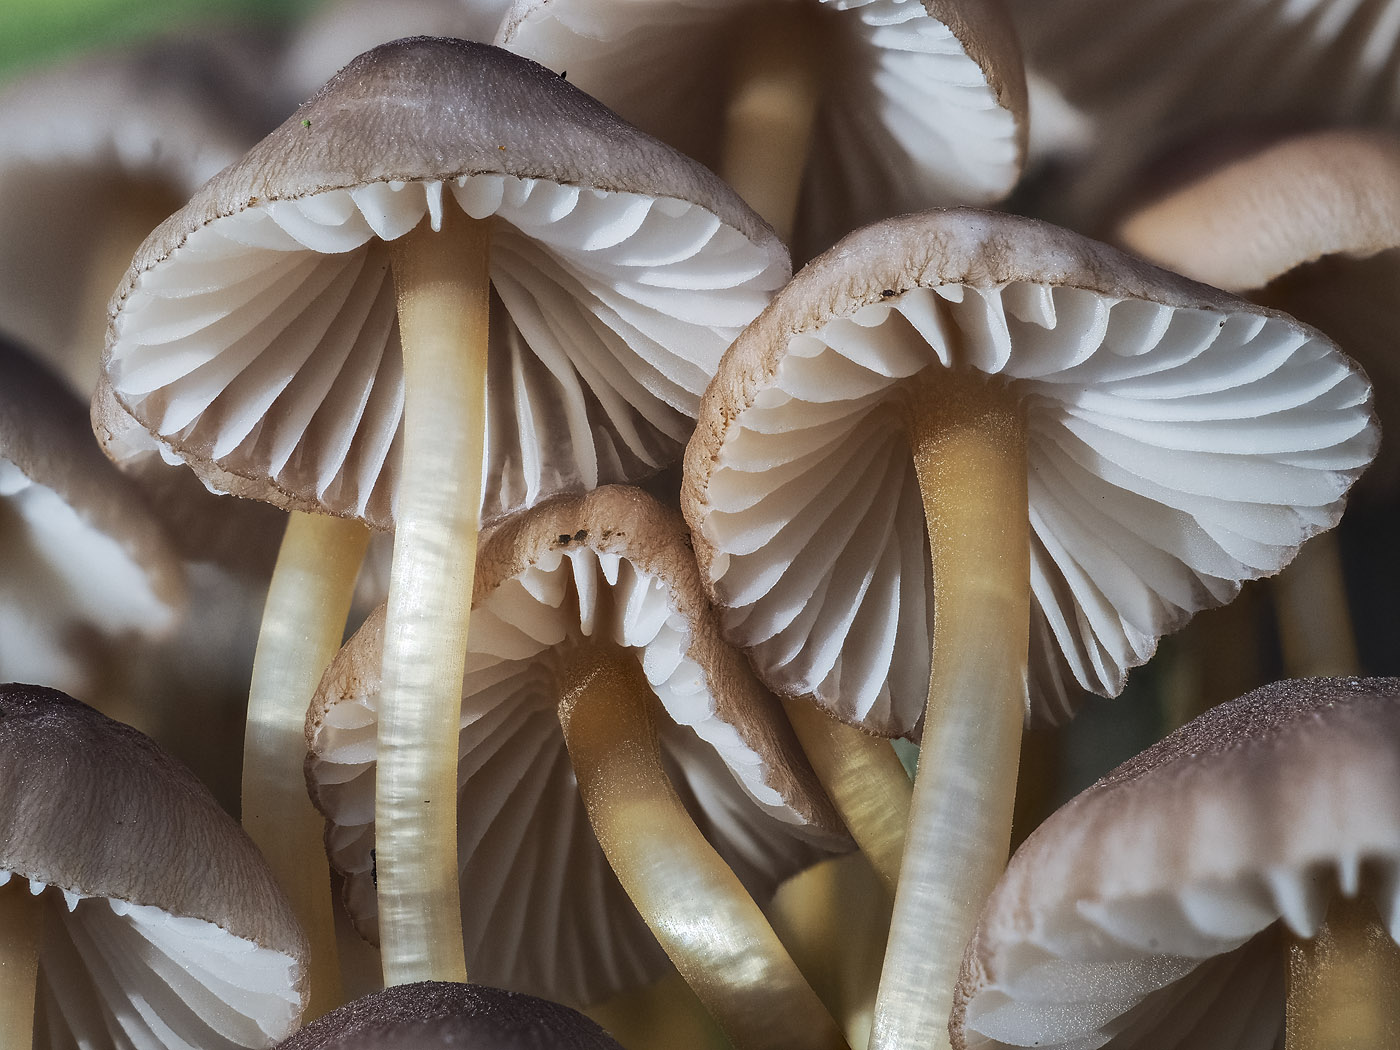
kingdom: Fungi
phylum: Basidiomycota
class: Agaricomycetes
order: Agaricales
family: Mycenaceae
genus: Mycena
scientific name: Mycena renati
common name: smuk huesvamp
